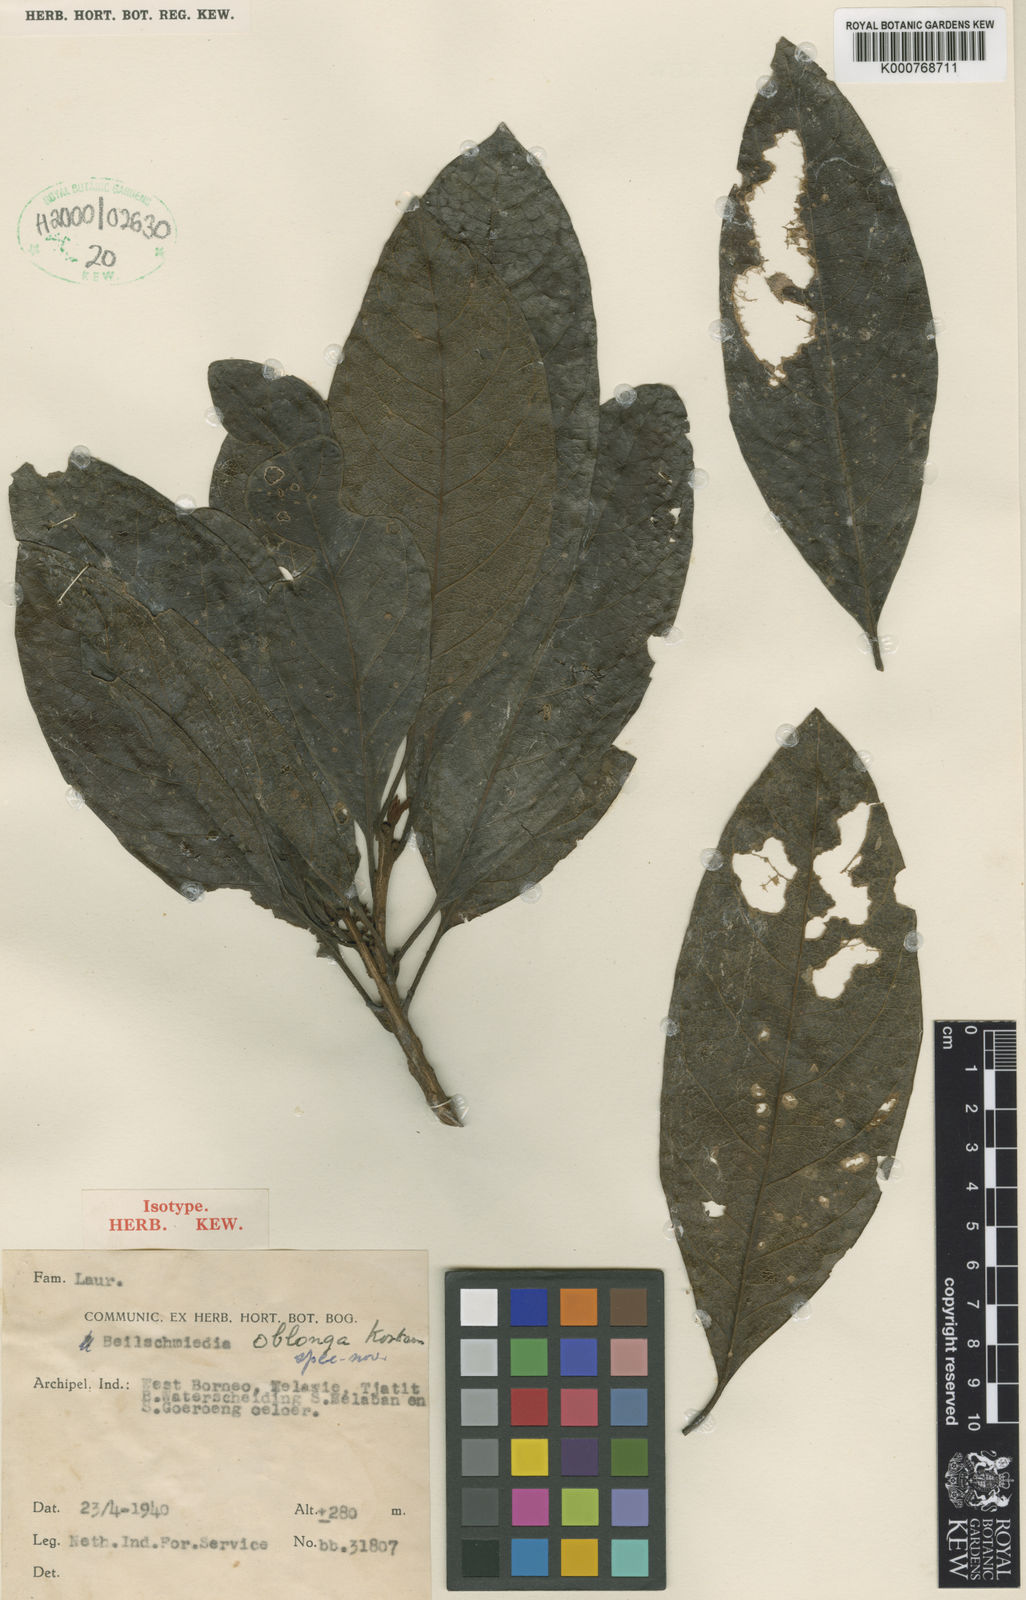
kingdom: Plantae
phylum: Tracheophyta
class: Magnoliopsida
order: Laurales
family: Lauraceae
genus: Beilschmiedia
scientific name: Beilschmiedia oblonga
